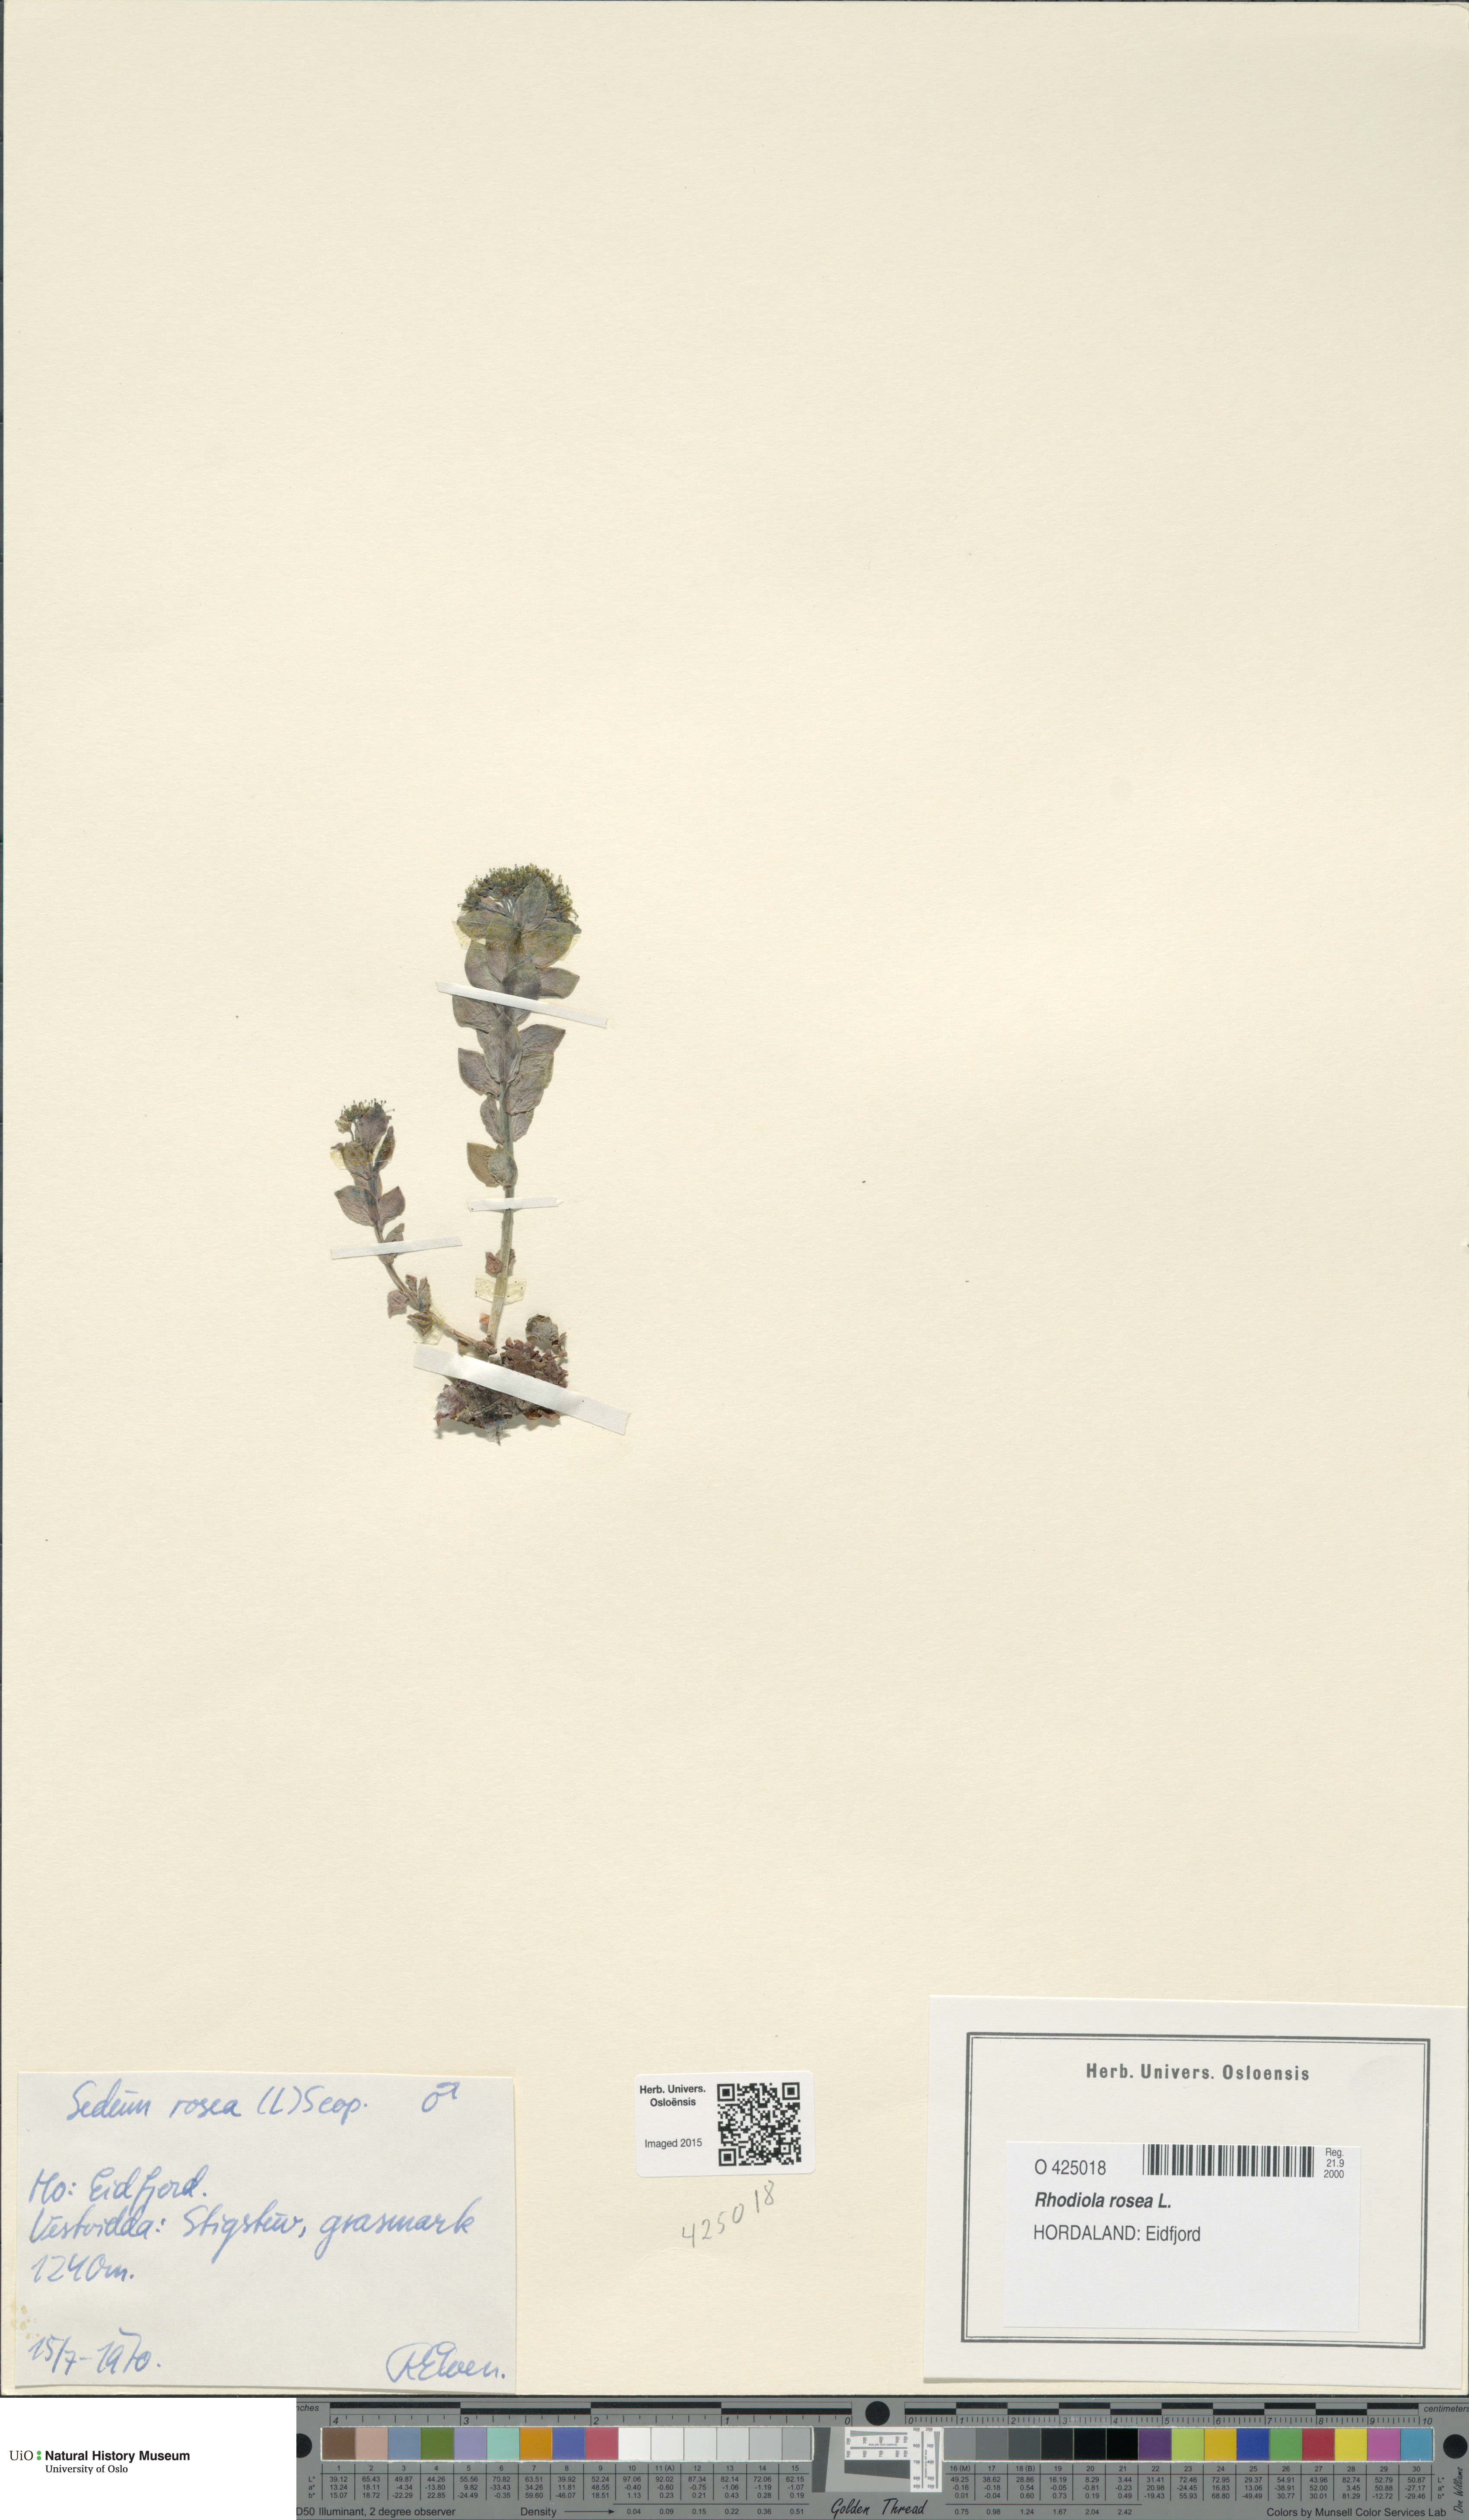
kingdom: Plantae
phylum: Tracheophyta
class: Magnoliopsida
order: Saxifragales
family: Crassulaceae
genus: Rhodiola
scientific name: Rhodiola rosea
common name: Roseroot
